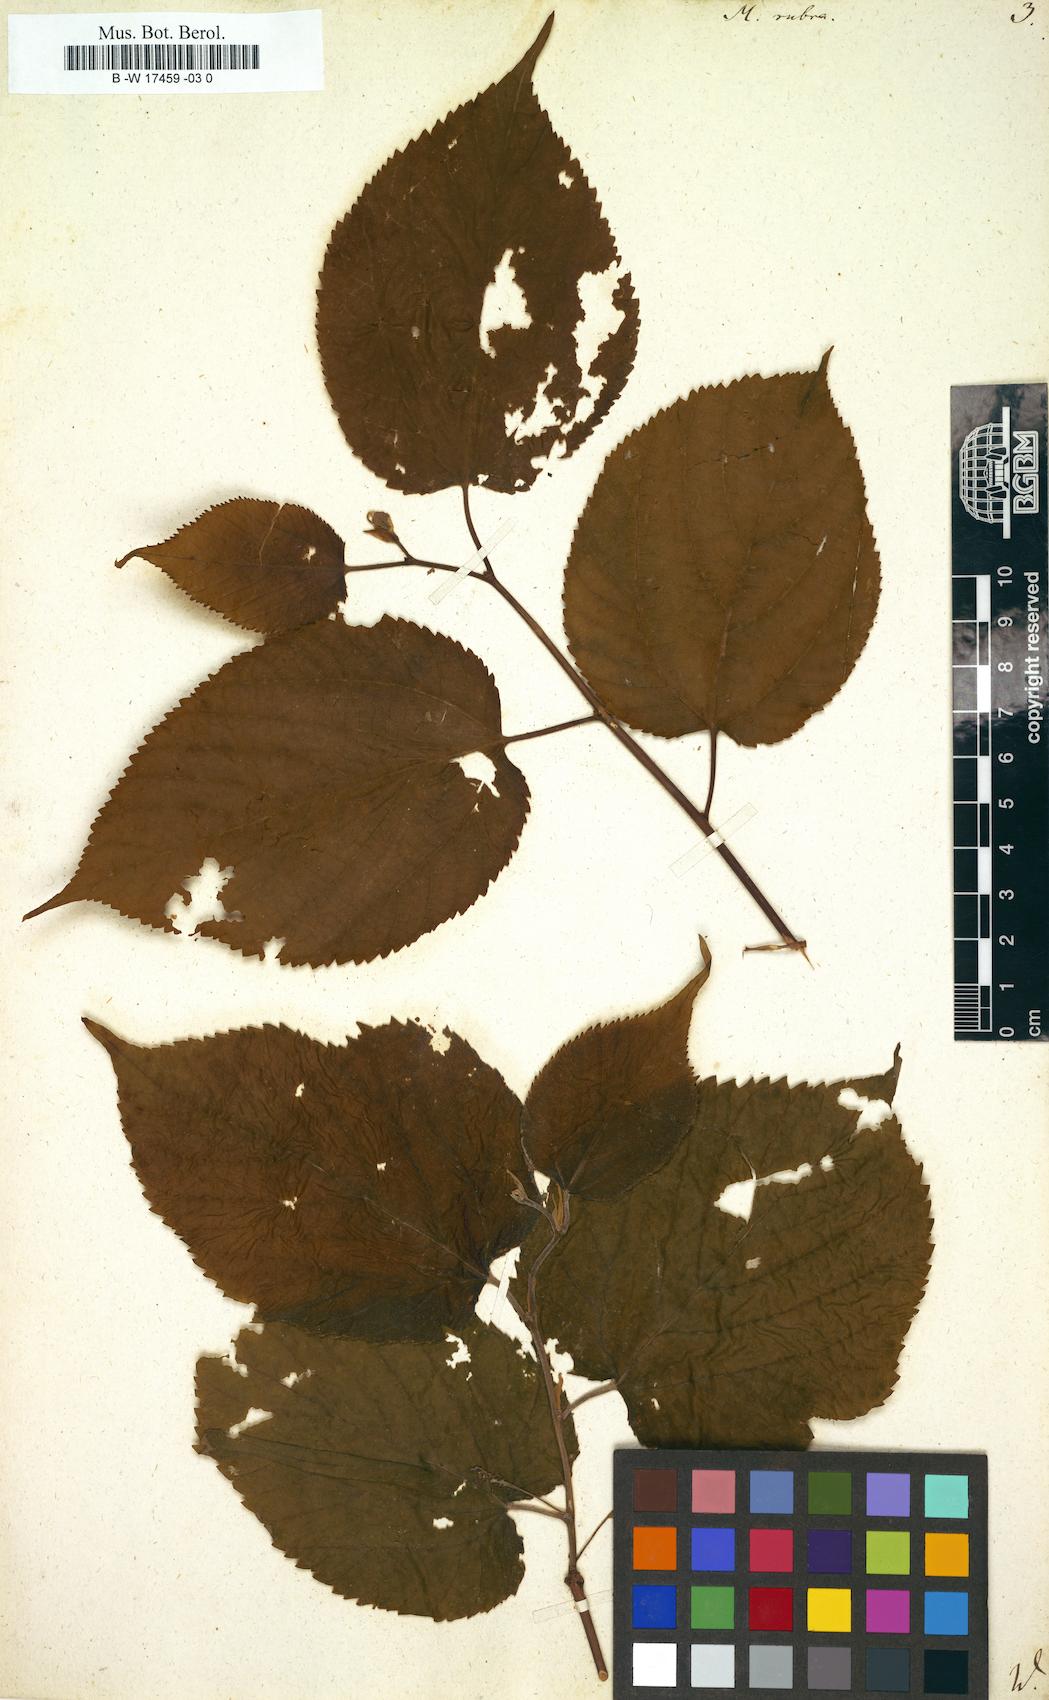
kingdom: Plantae
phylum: Tracheophyta
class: Magnoliopsida
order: Rosales
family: Moraceae
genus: Morus
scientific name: Morus rubra
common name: Red mulberry
